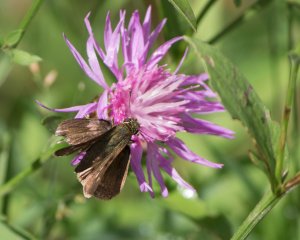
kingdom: Animalia
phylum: Arthropoda
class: Insecta
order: Lepidoptera
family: Hesperiidae
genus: Euphyes
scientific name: Euphyes
